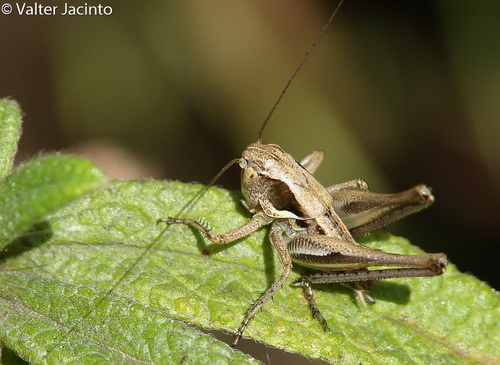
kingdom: Animalia
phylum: Arthropoda
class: Insecta
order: Orthoptera
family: Tettigoniidae
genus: Platycleis
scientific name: Platycleis
